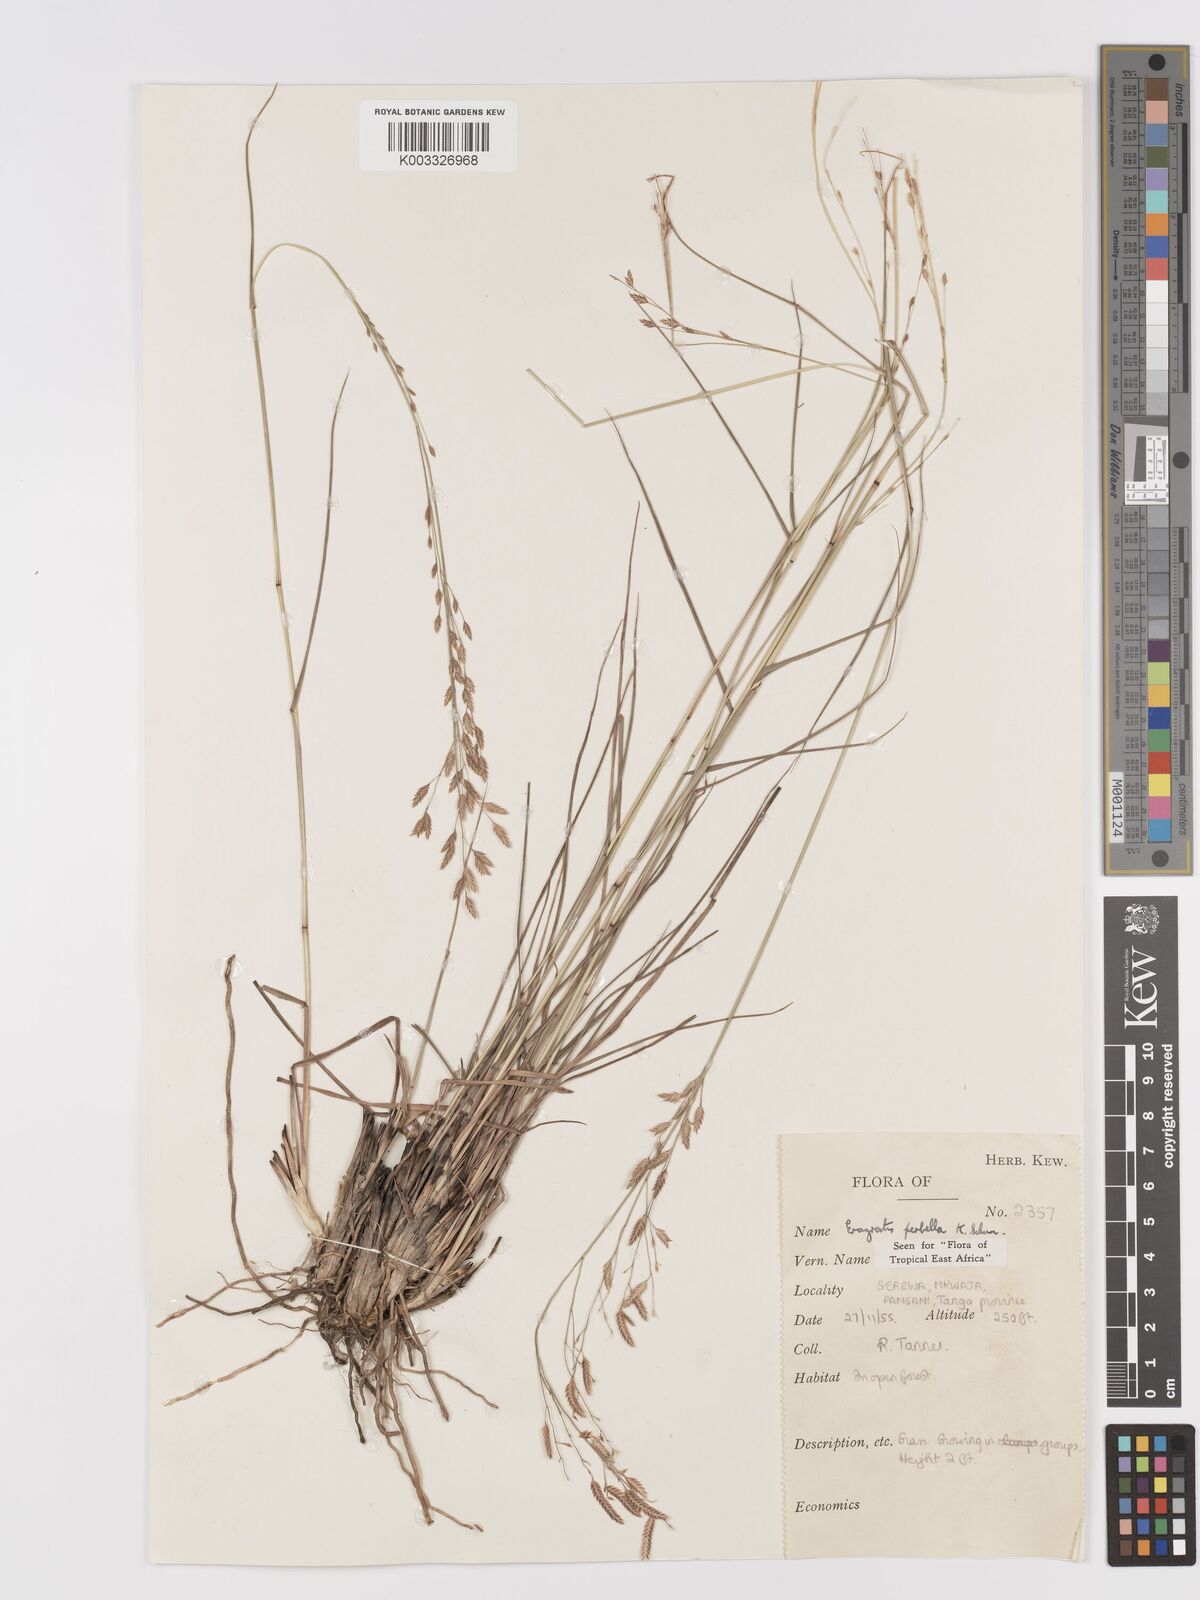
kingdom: Plantae
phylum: Tracheophyta
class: Liliopsida
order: Poales
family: Poaceae
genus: Eragrostis
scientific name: Eragrostis perbella
